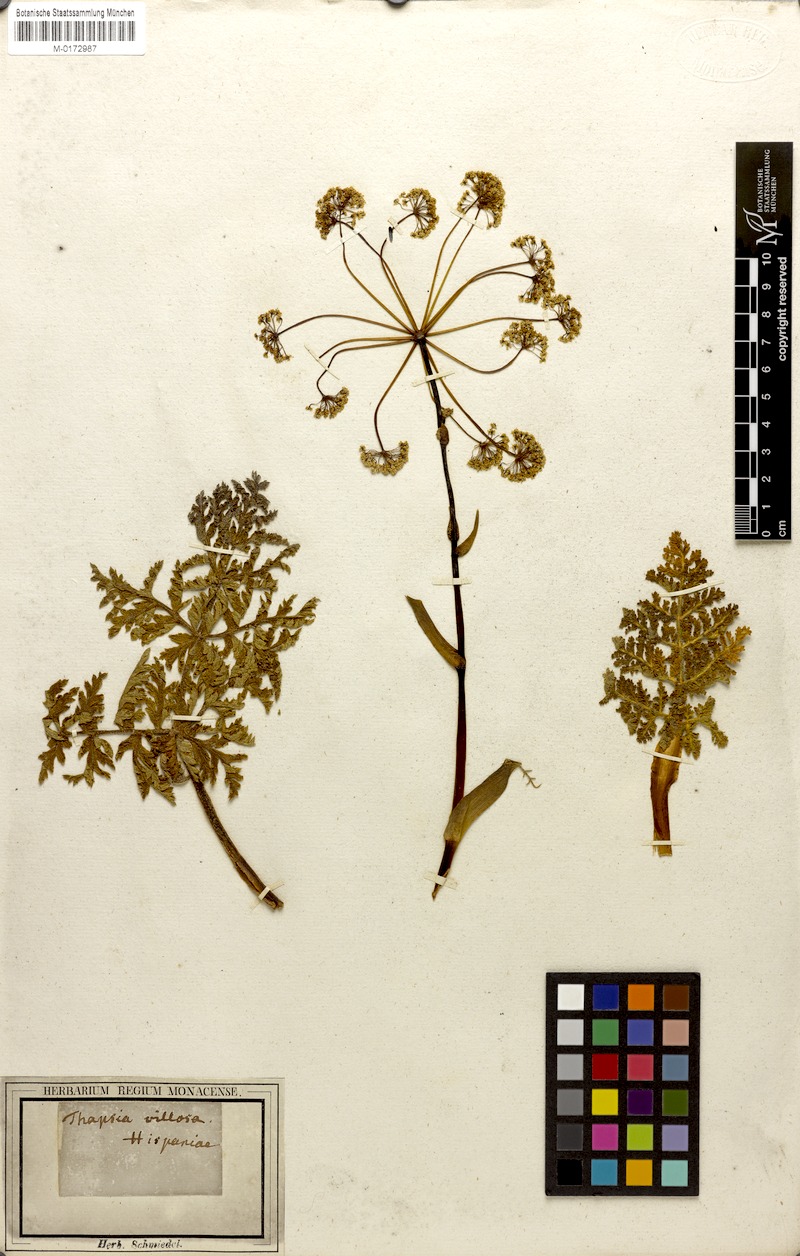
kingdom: Plantae
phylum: Tracheophyta
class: Magnoliopsida
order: Apiales
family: Apiaceae
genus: Thapsia
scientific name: Thapsia villosa
